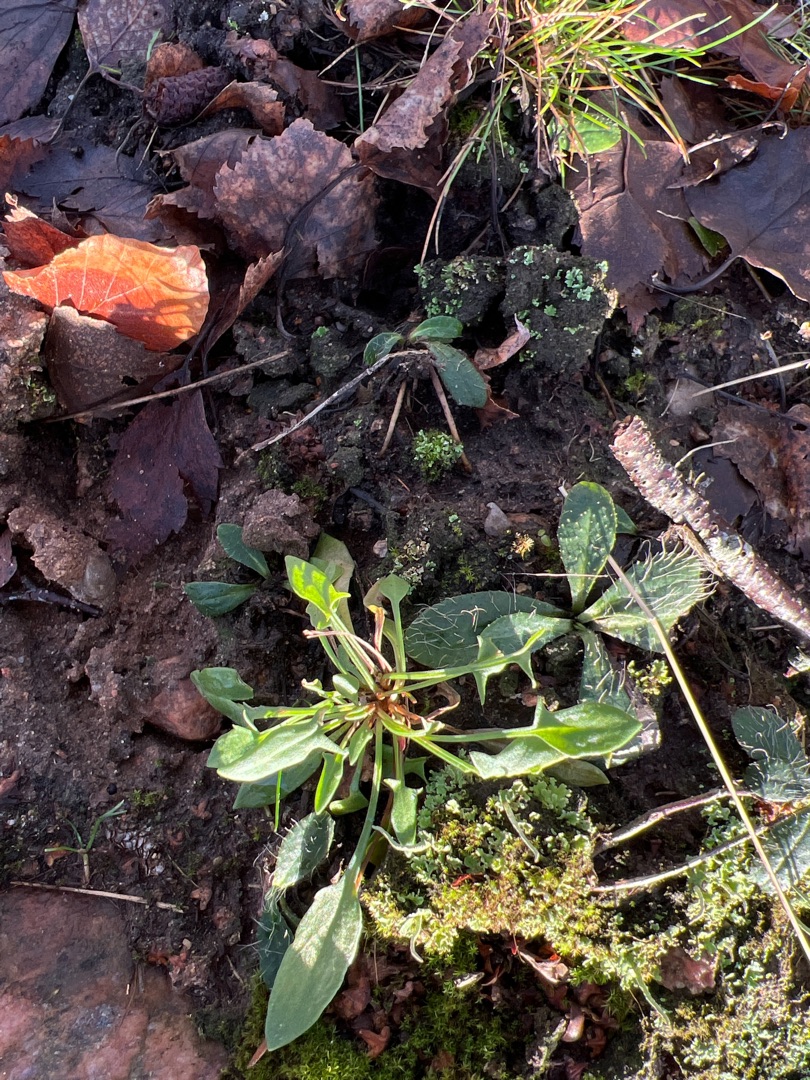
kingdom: Plantae
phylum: Tracheophyta
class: Magnoliopsida
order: Caryophyllales
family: Polygonaceae
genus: Rumex
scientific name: Rumex acetosella
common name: Rødknæ
